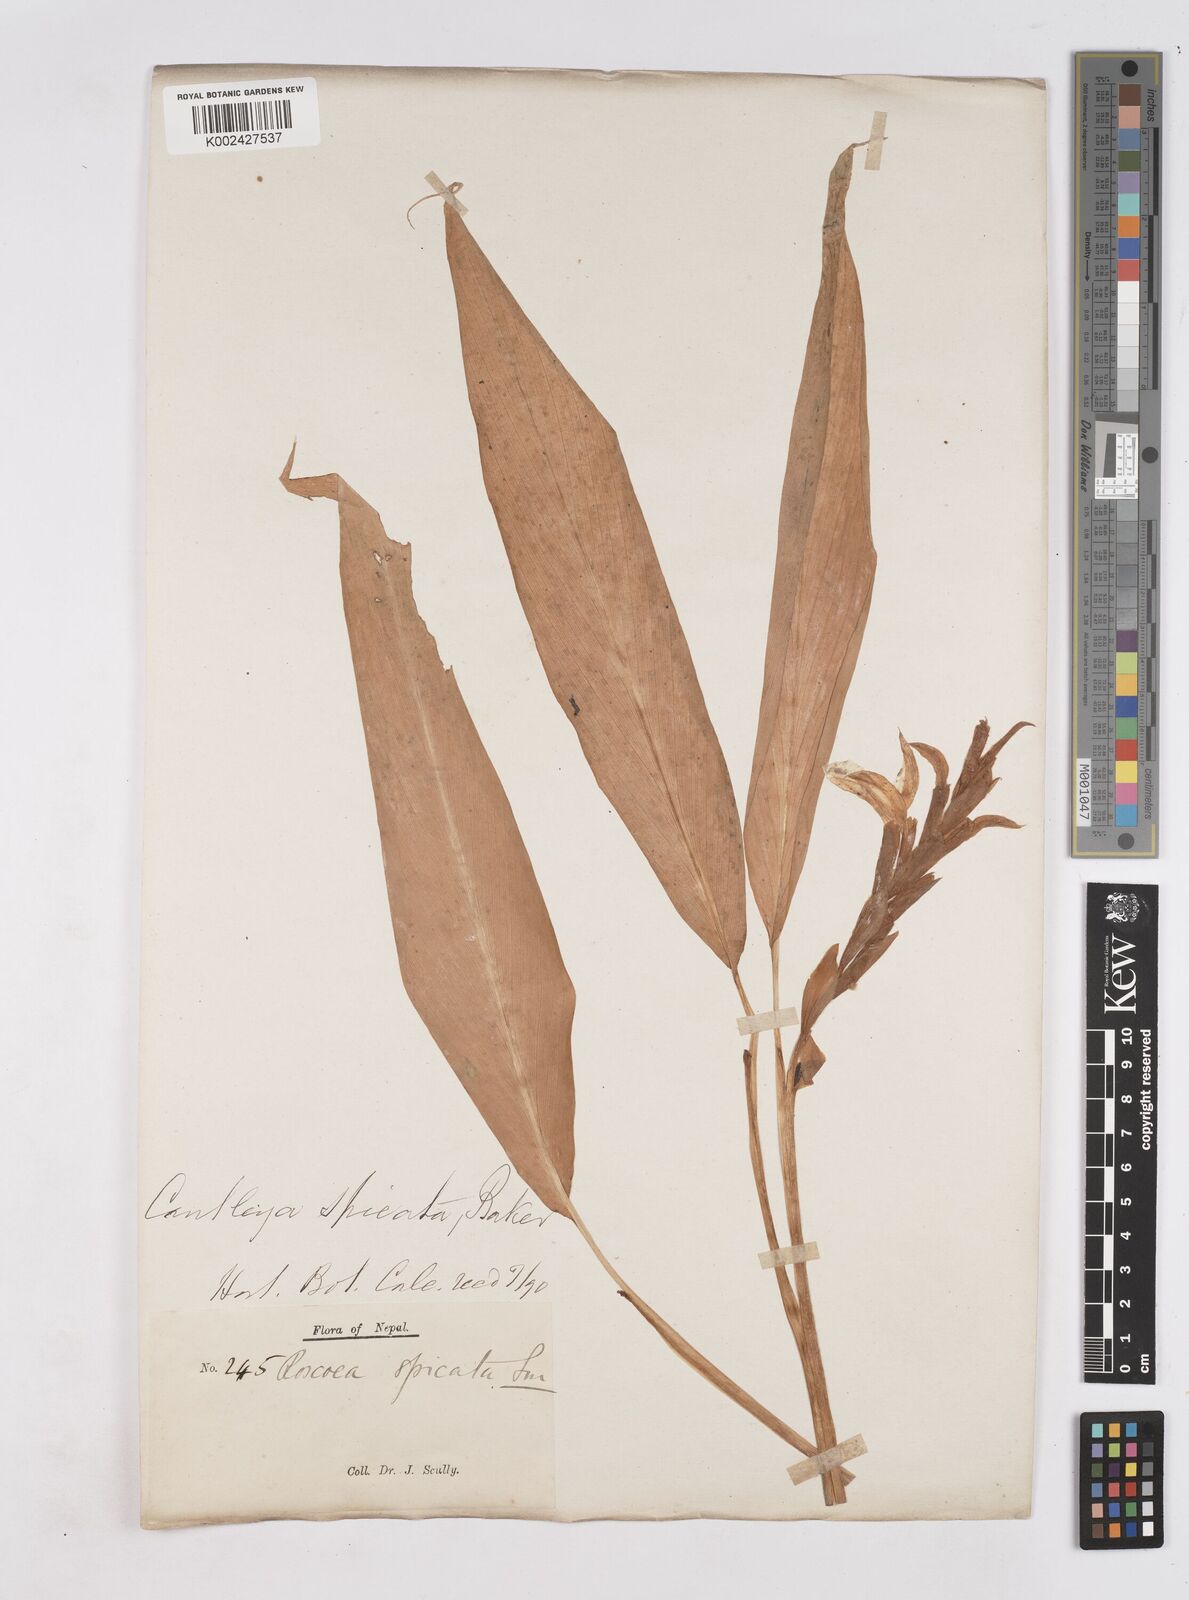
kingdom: Plantae
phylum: Tracheophyta
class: Liliopsida
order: Zingiberales
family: Zingiberaceae
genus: Cautleya
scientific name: Cautleya spicata
